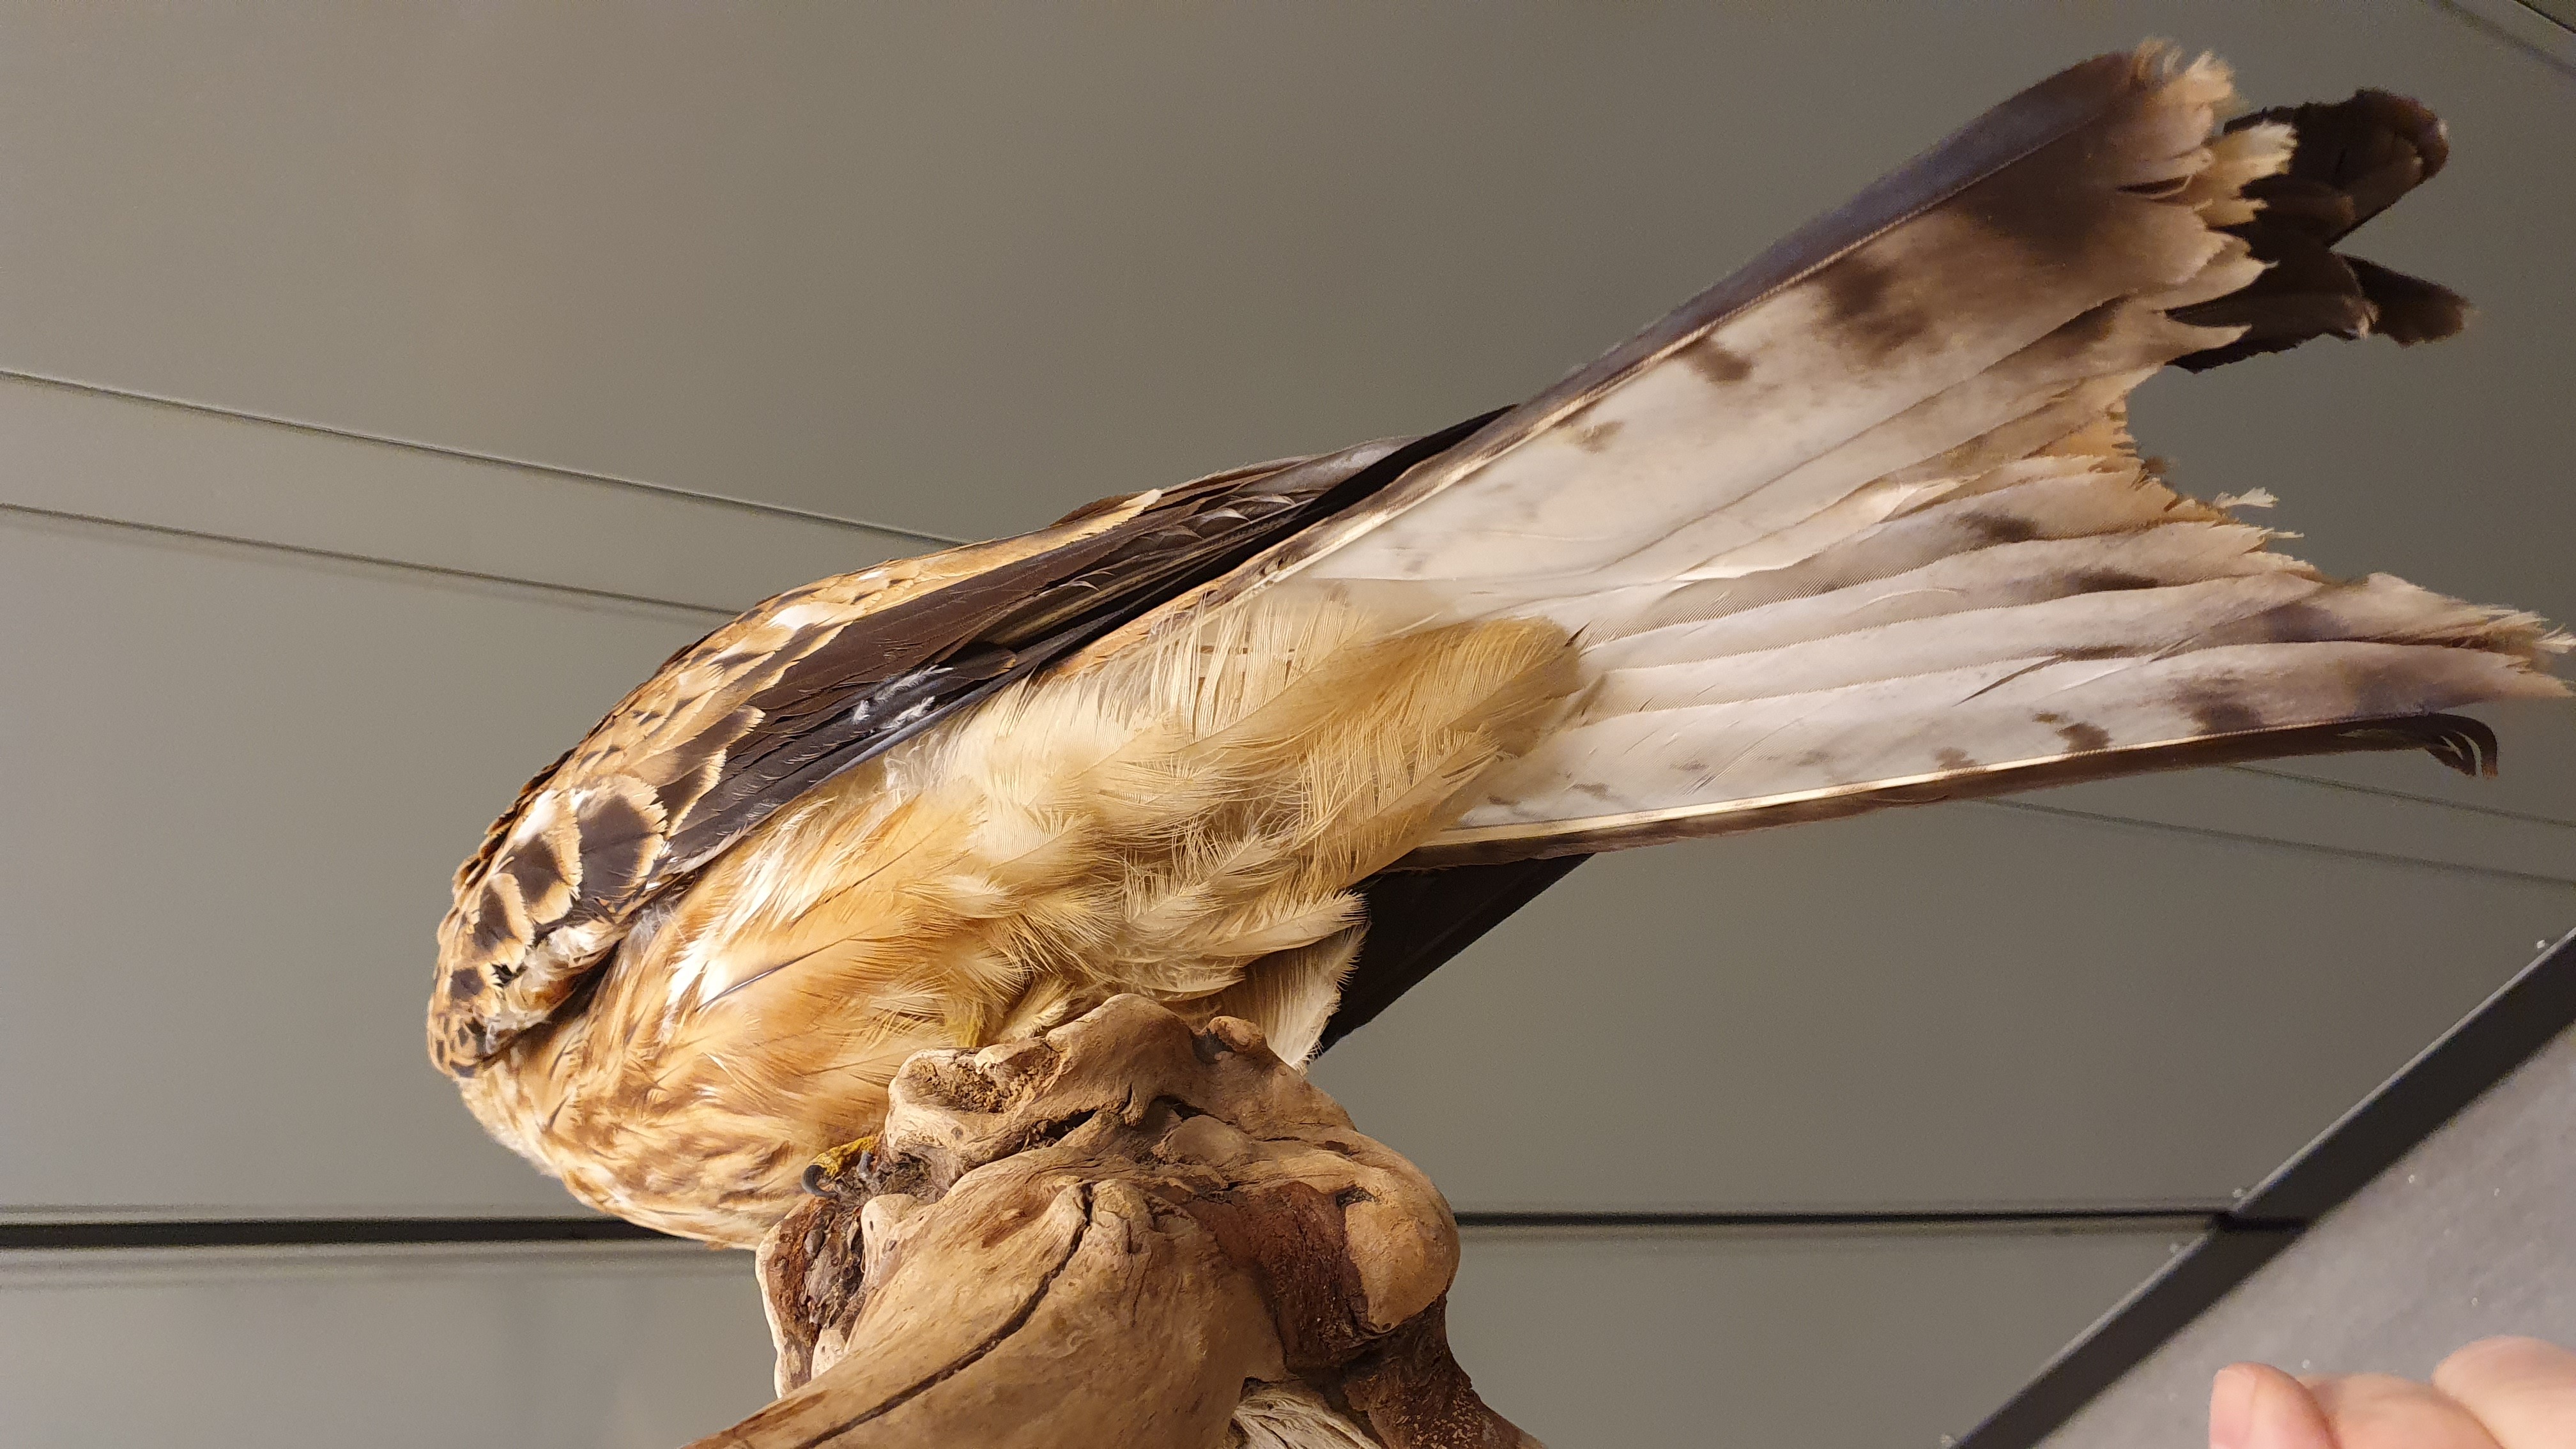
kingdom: Animalia
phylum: Chordata
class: Aves
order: Accipitriformes
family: Accipitridae
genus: Milvus
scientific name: Milvus milvus
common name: Red kite
